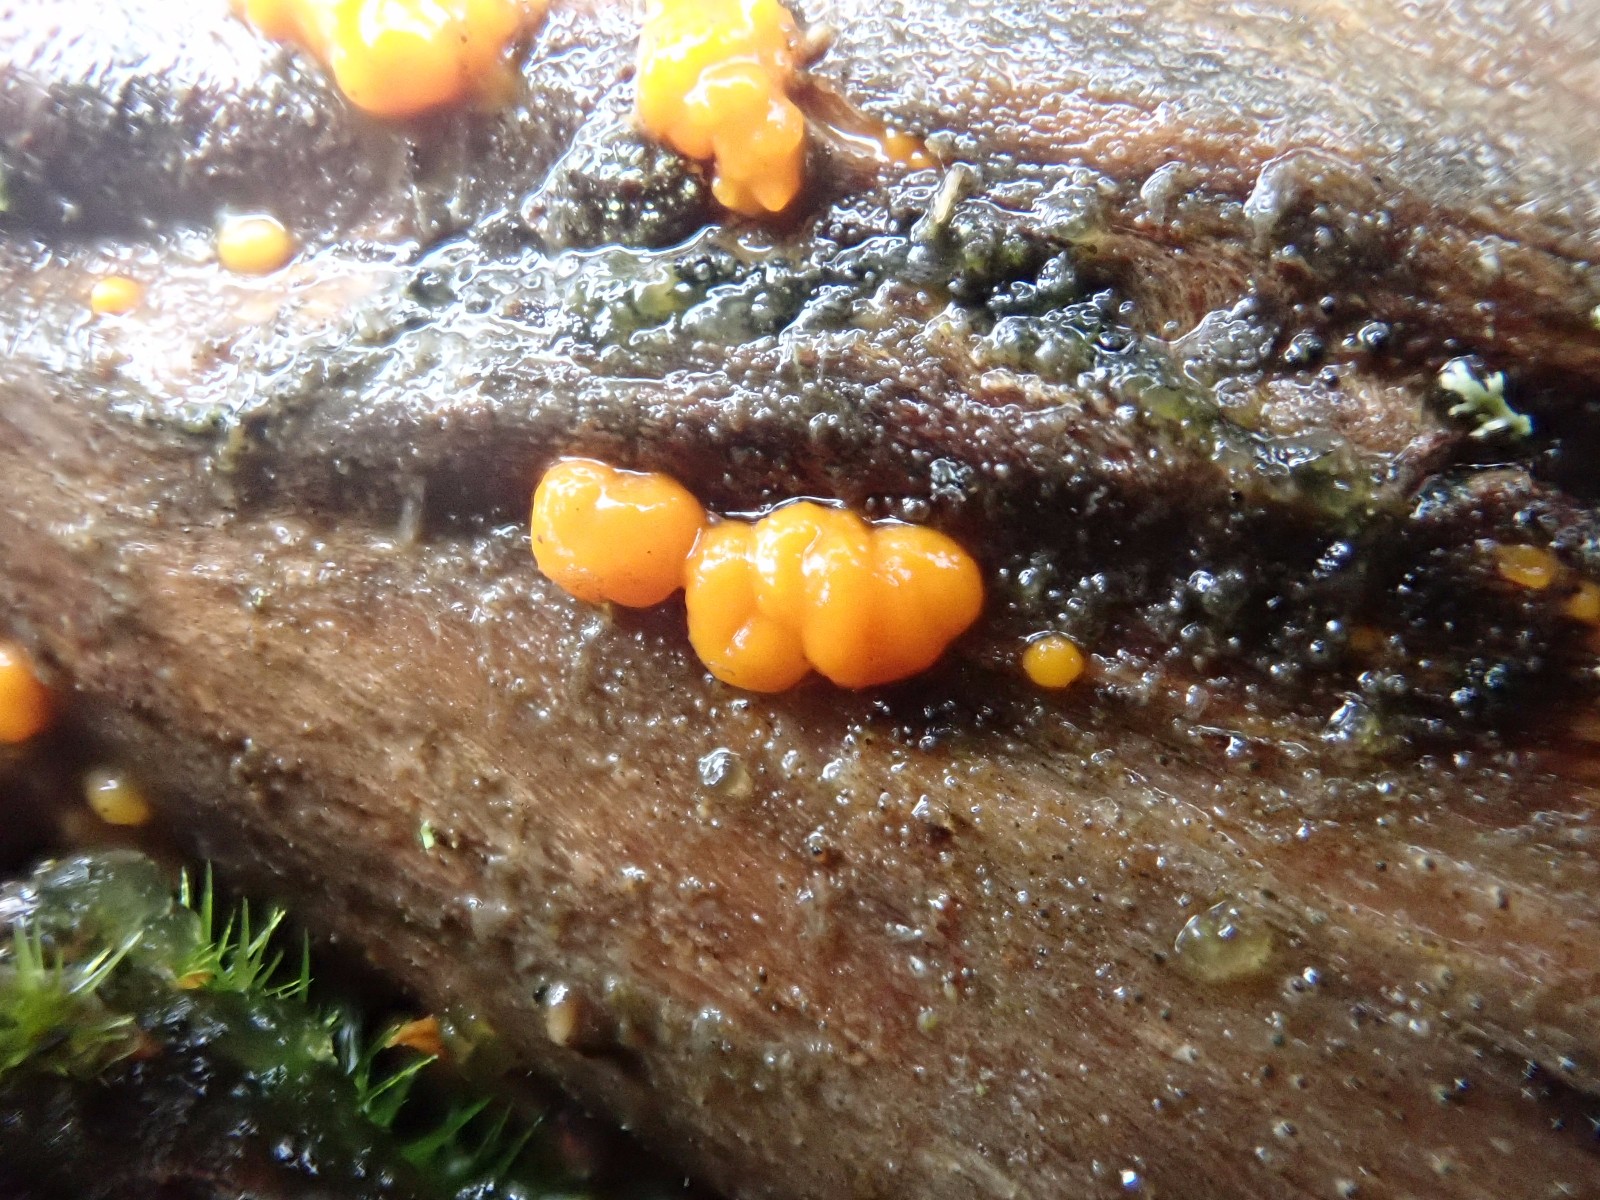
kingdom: Fungi
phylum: Basidiomycota
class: Dacrymycetes
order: Dacrymycetales
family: Dacrymycetaceae
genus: Dacrymyces
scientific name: Dacrymyces stillatus
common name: almindelig tåresvamp
